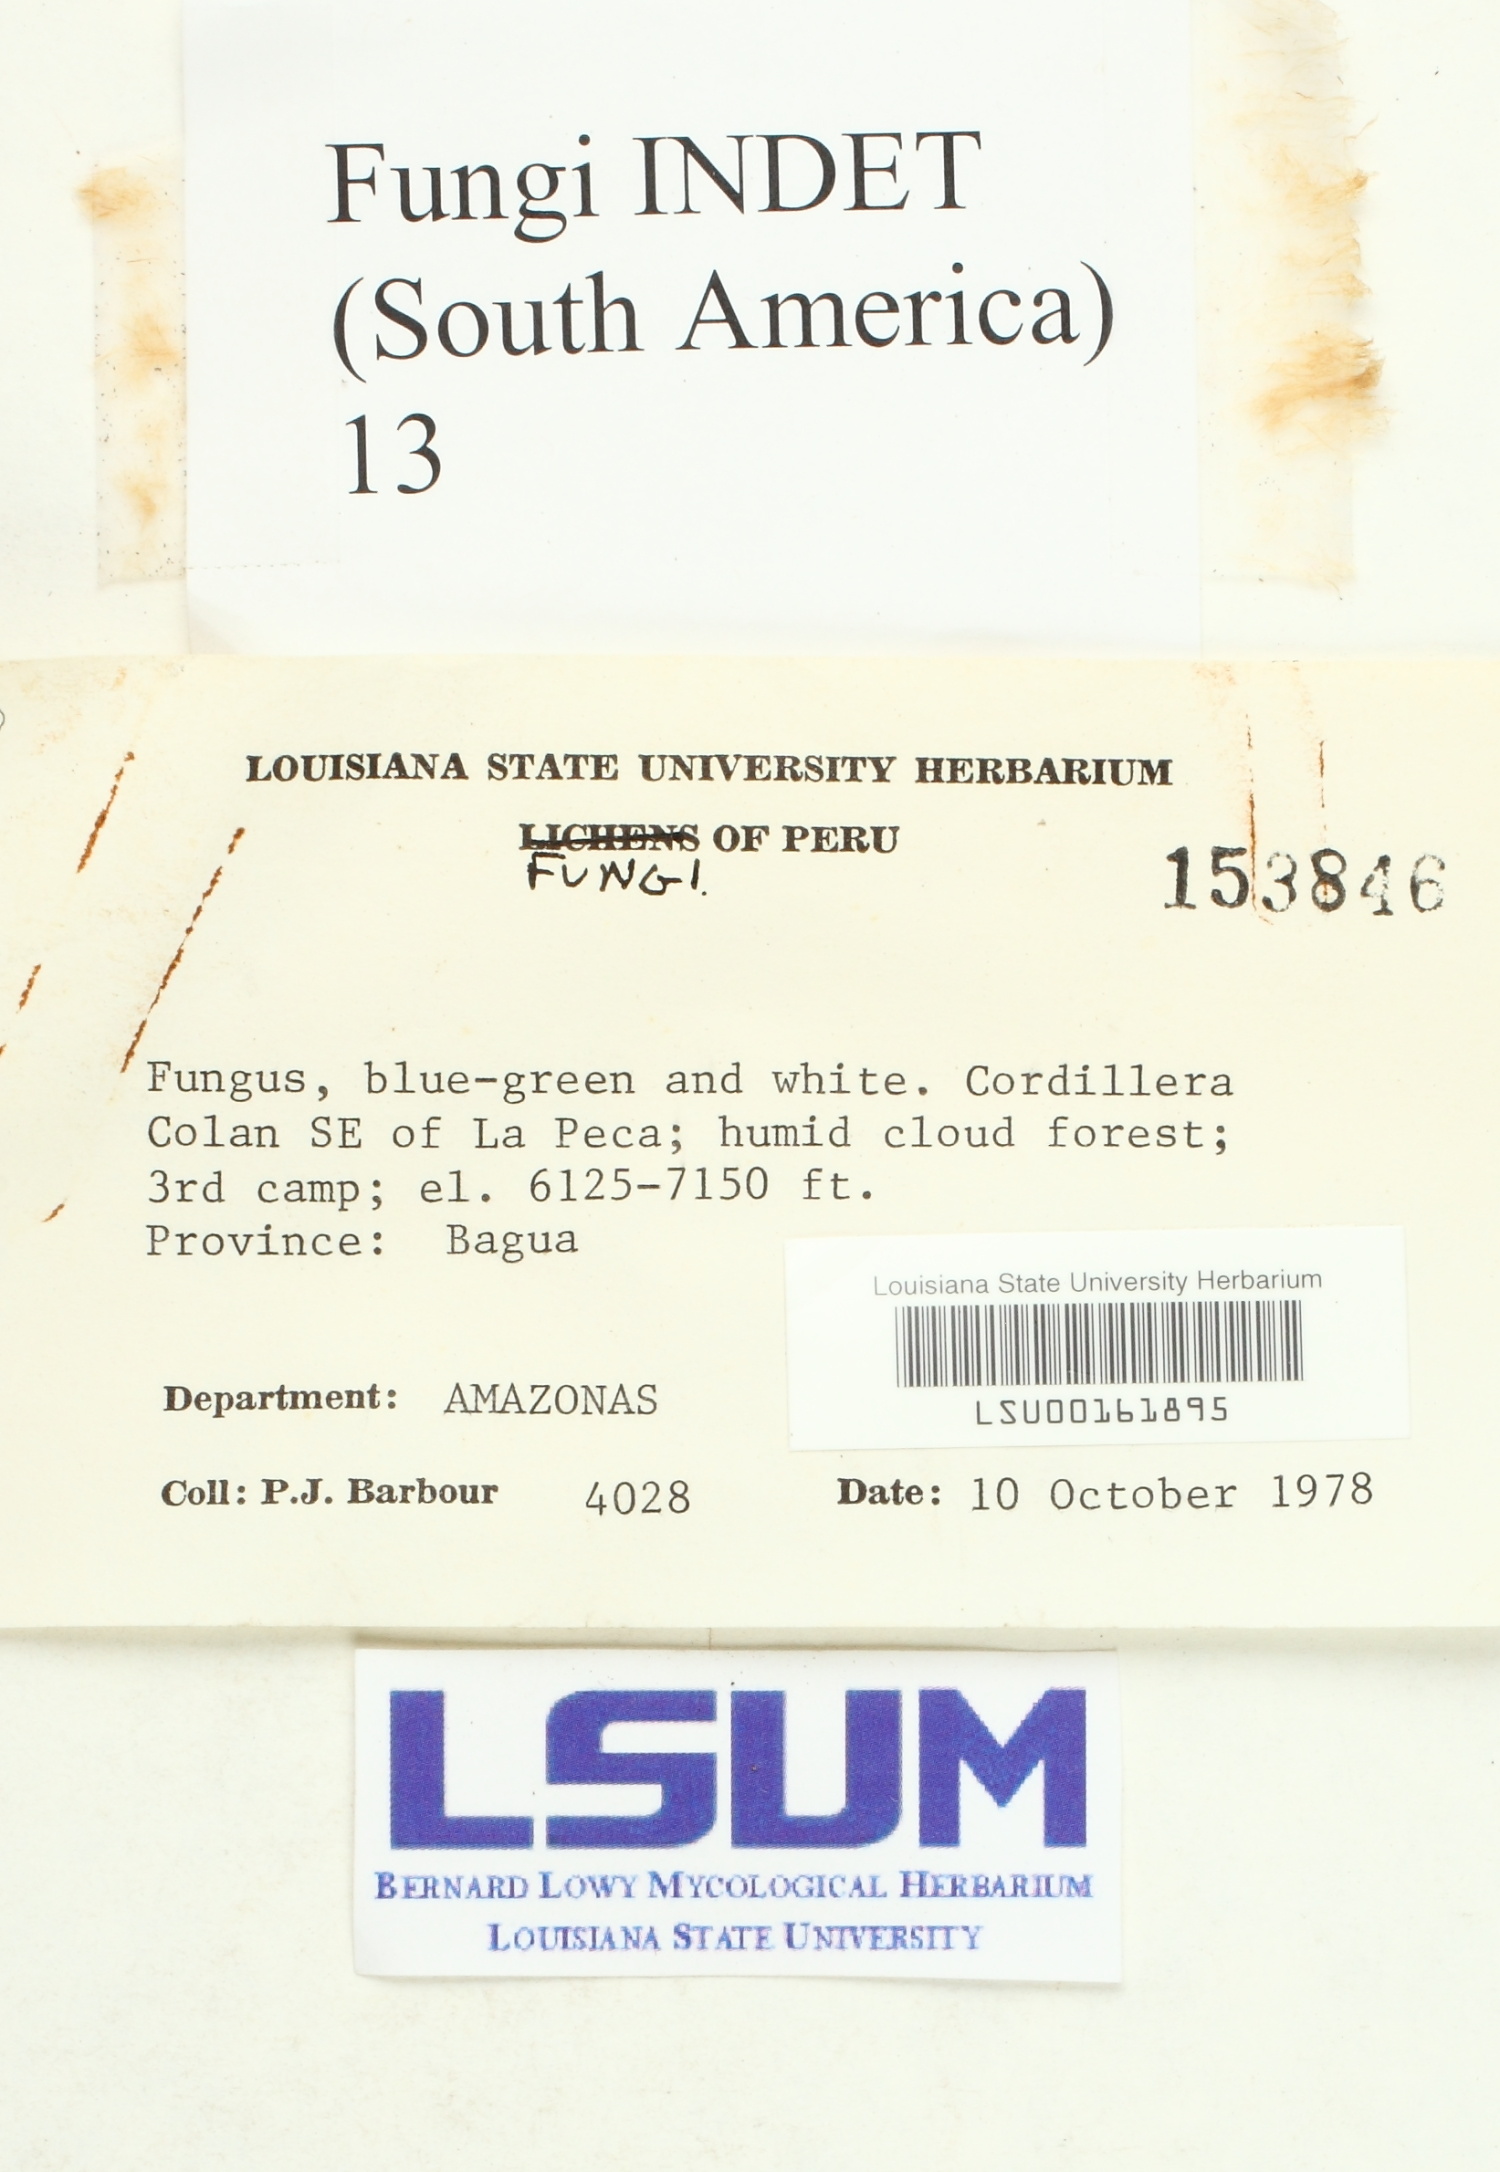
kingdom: Fungi
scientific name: Fungi
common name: Fungi
